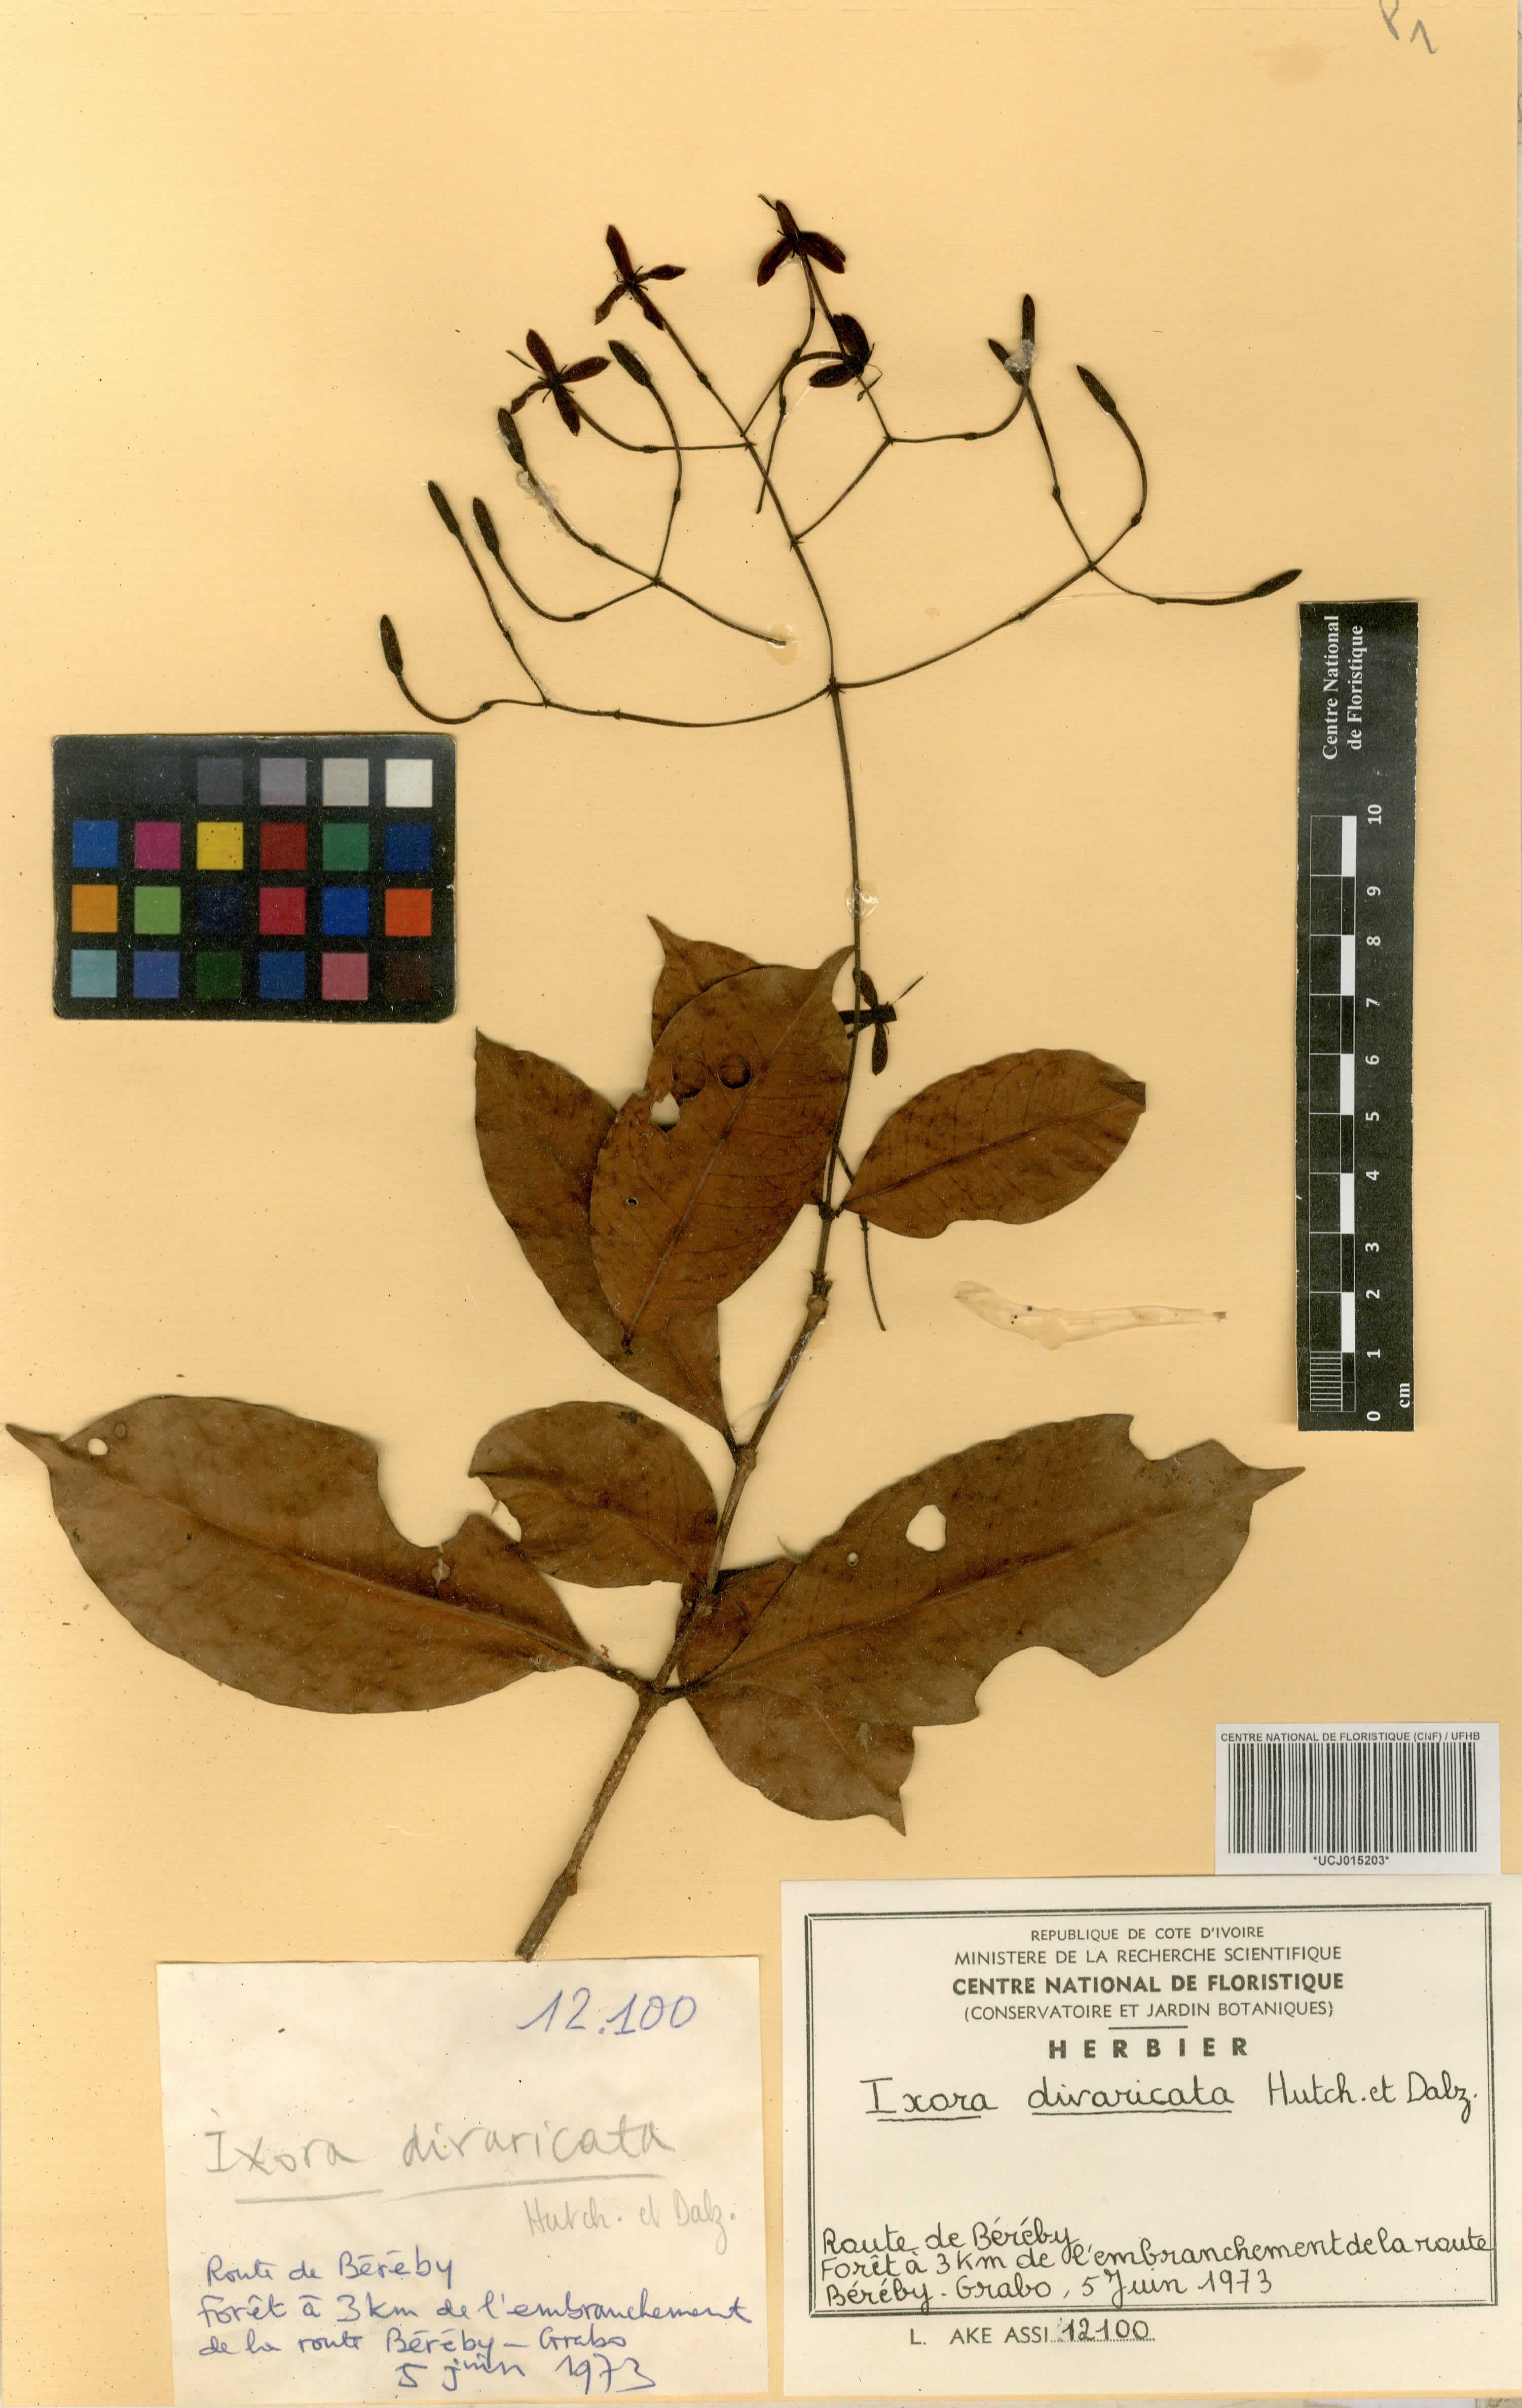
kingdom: Plantae
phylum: Tracheophyta
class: Magnoliopsida
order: Gentianales
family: Rubiaceae
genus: Ixora
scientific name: Ixora laxiflora
